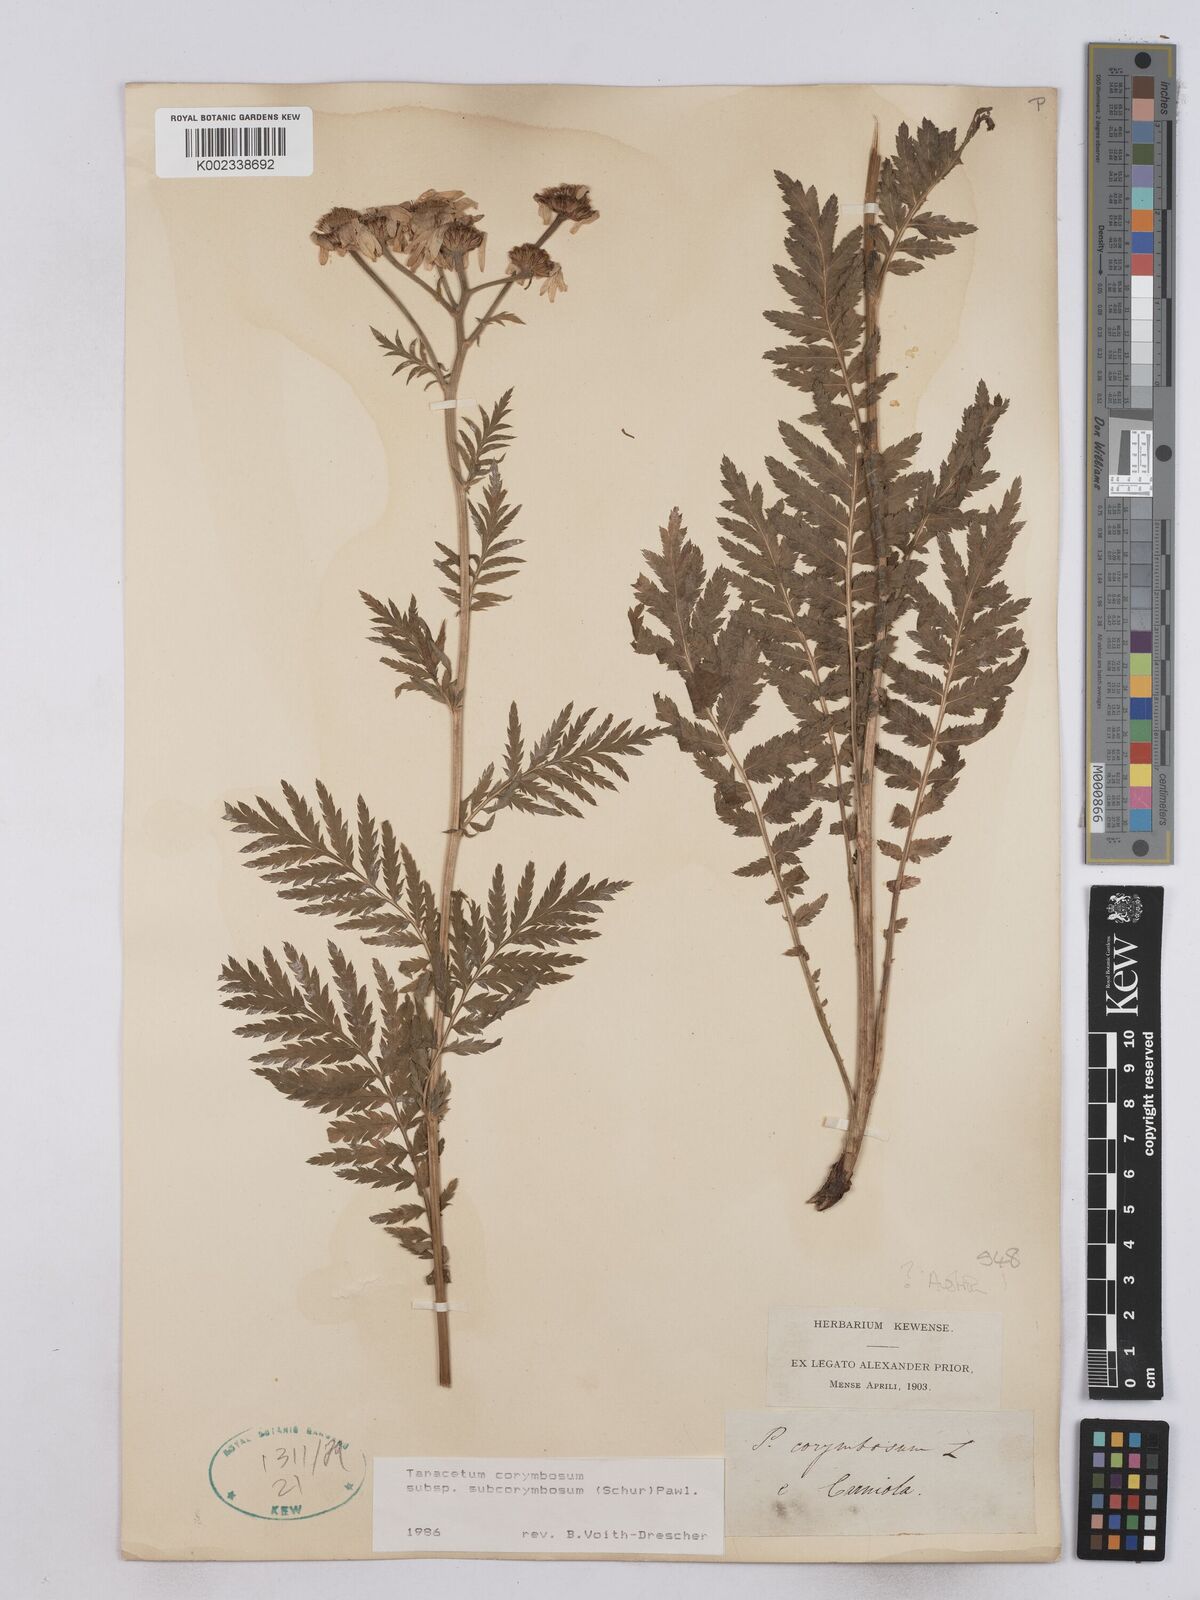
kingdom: Plantae
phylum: Tracheophyta
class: Magnoliopsida
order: Asterales
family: Asteraceae
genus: Tanacetum
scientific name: Tanacetum corymbosum
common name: Scentless feverfew
